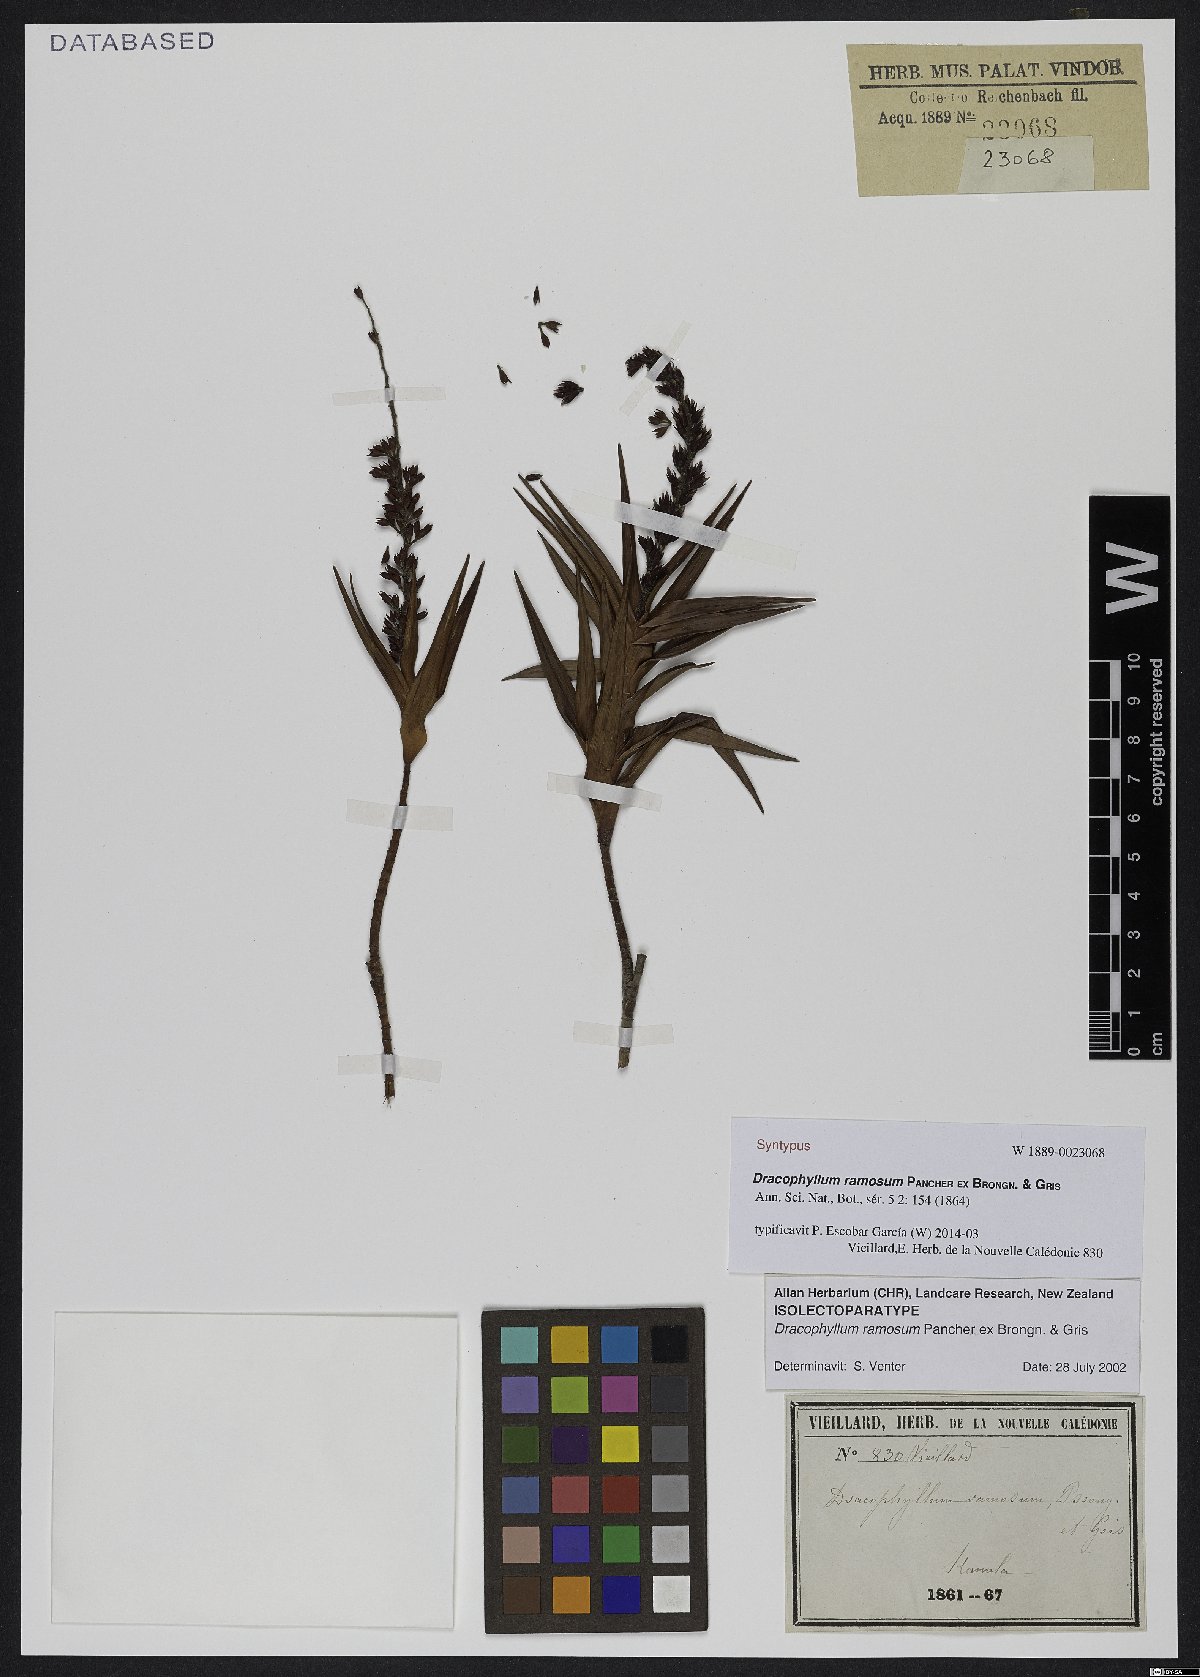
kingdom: Plantae
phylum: Tracheophyta
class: Magnoliopsida
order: Ericales
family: Ericaceae
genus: Dracophyllum
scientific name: Dracophyllum ramosum
